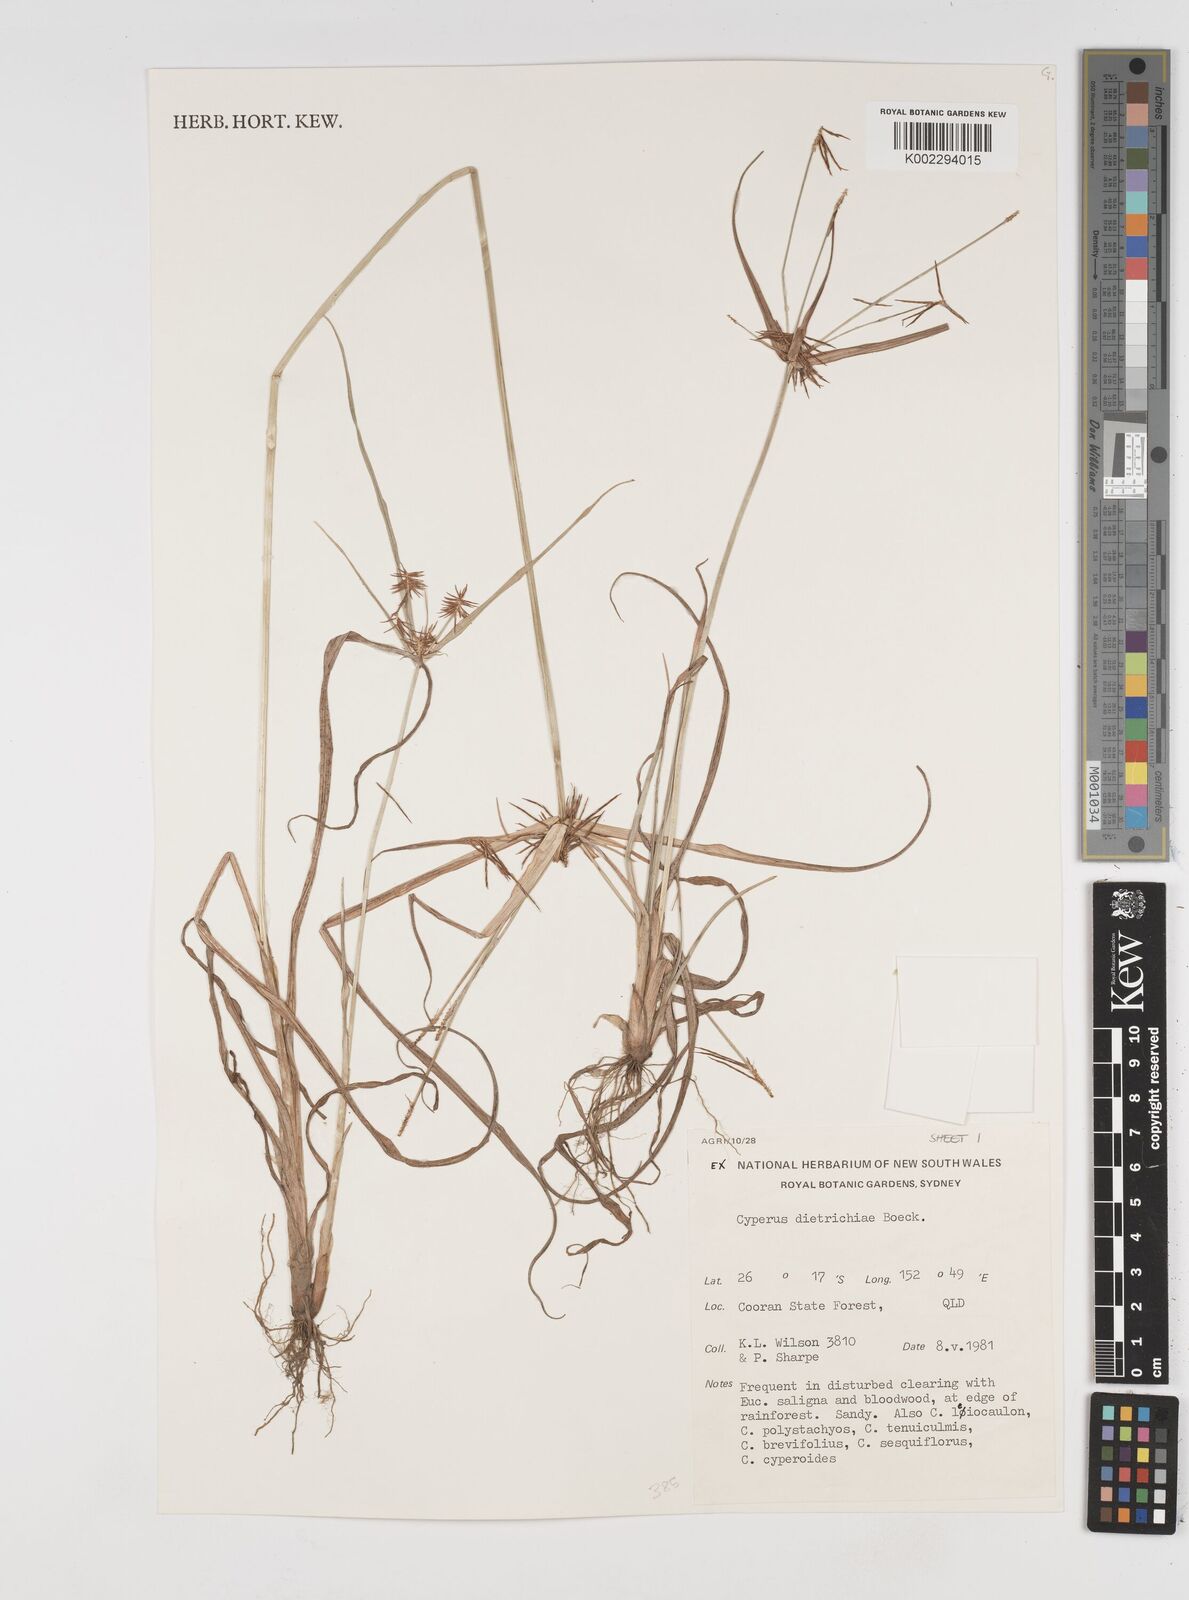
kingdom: Plantae
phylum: Tracheophyta
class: Liliopsida
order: Poales
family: Cyperaceae
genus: Cyperus
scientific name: Cyperus dietrichiae
